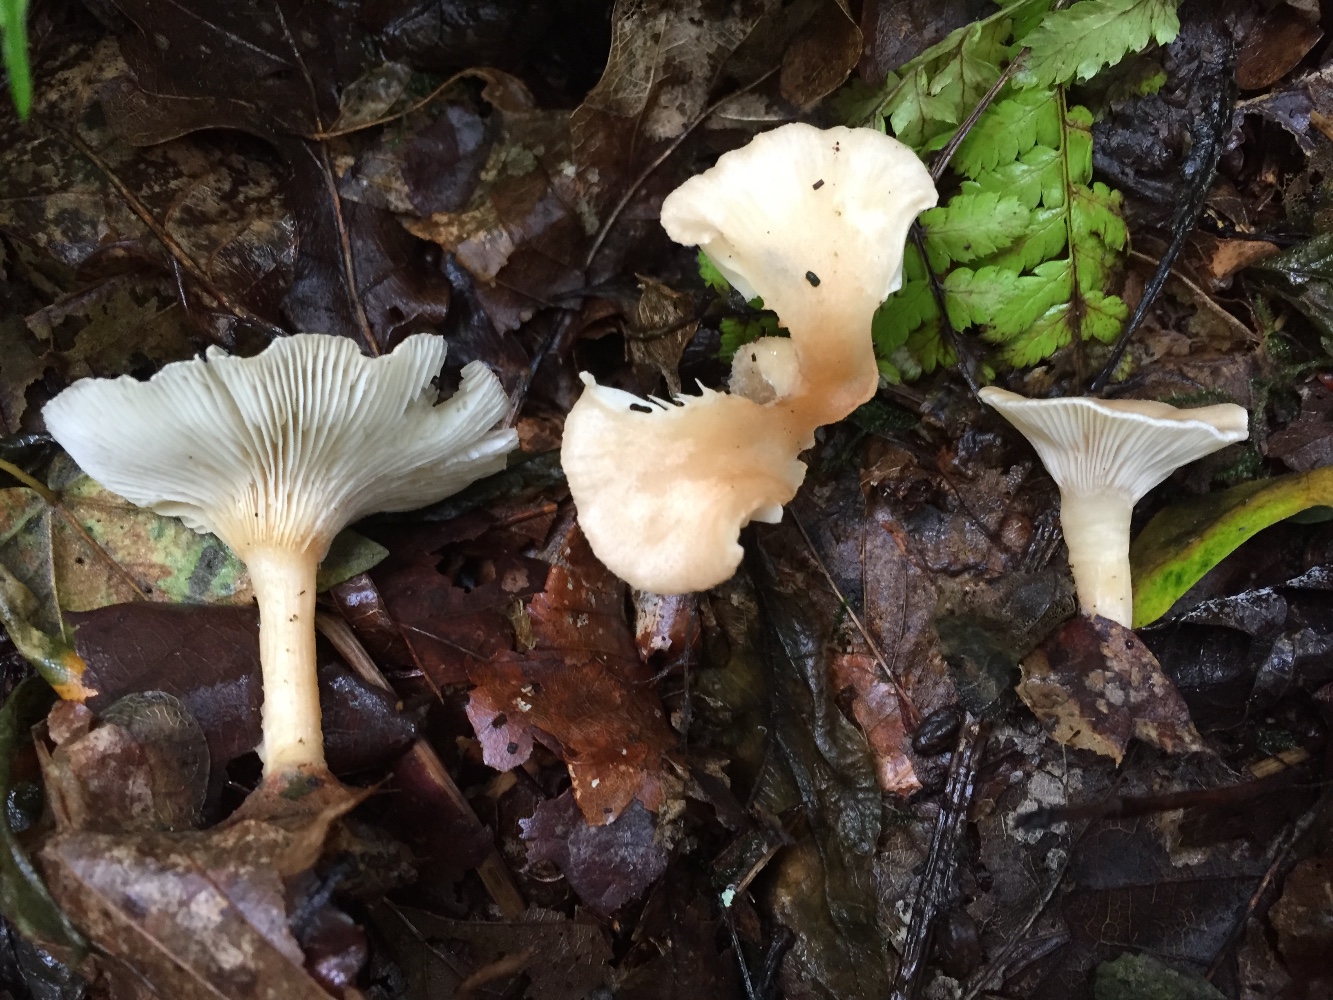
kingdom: Fungi
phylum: Basidiomycota
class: Agaricomycetes
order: Agaricales
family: Tricholomataceae
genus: Infundibulicybe
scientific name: Infundibulicybe gibba
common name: almindelig tragthat
